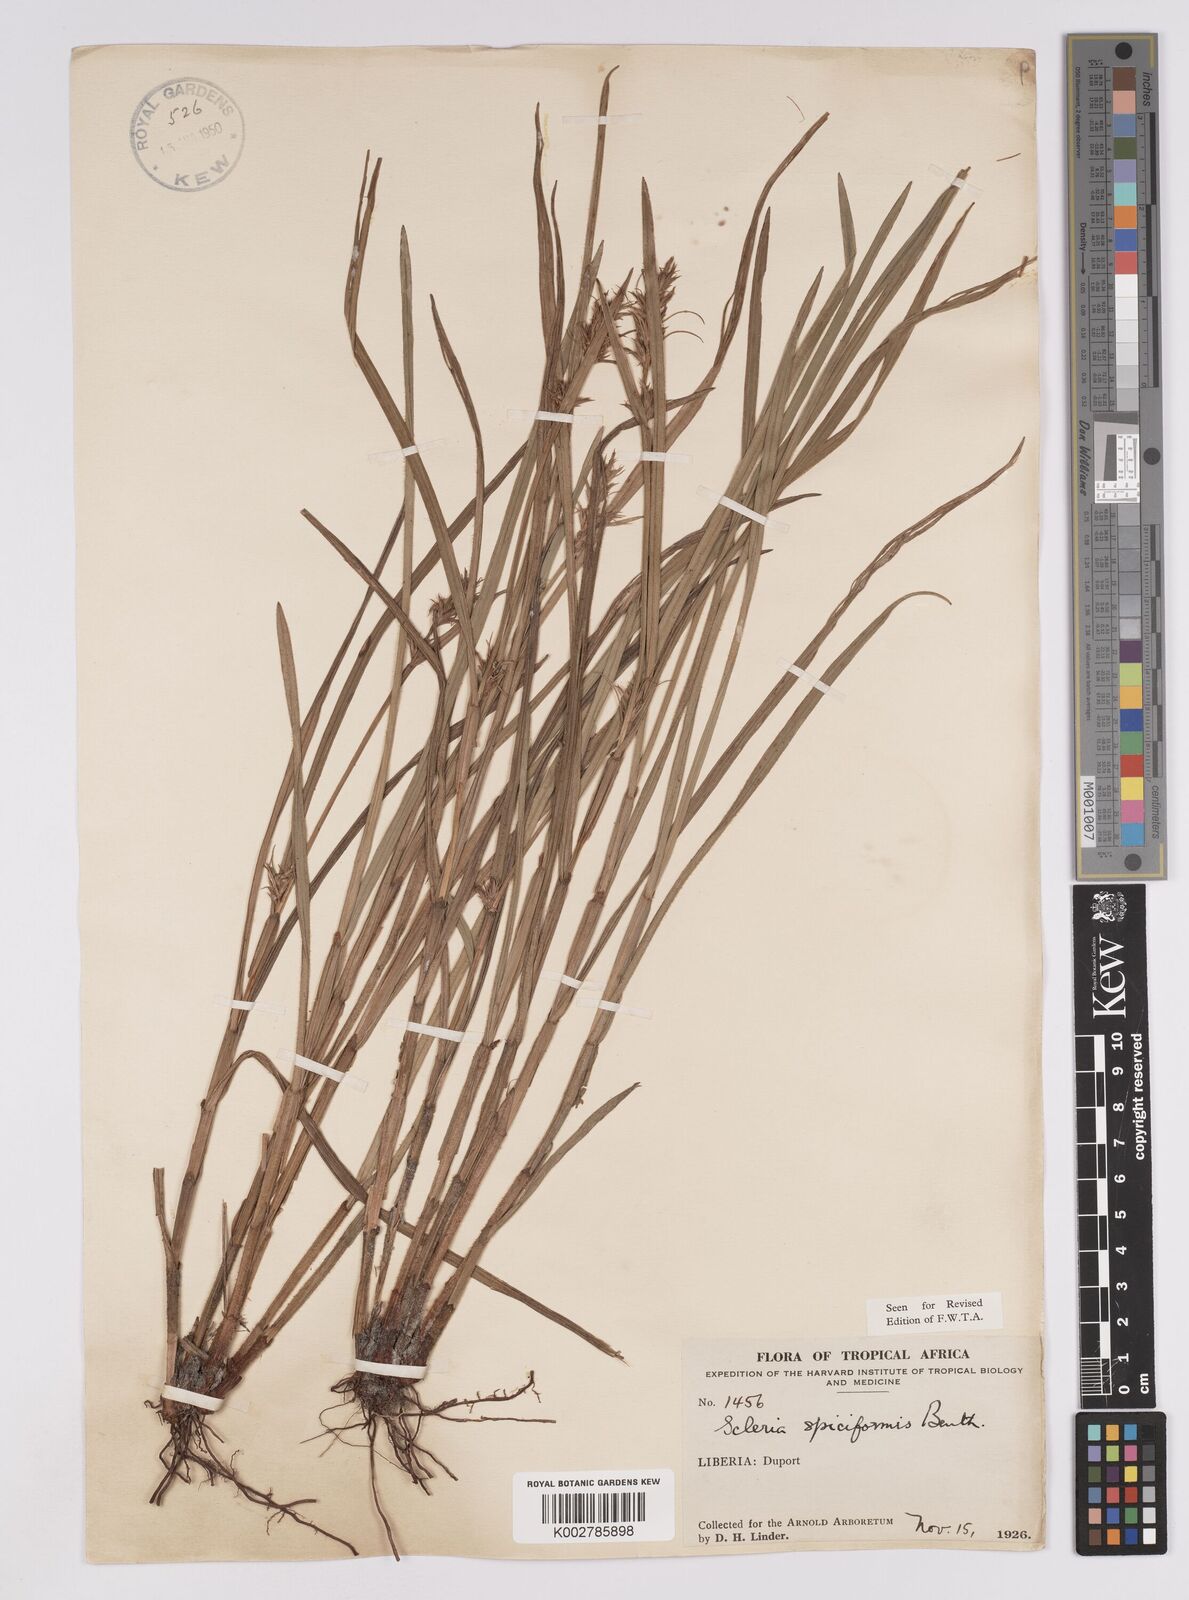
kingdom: Plantae
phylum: Tracheophyta
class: Liliopsida
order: Poales
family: Cyperaceae
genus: Scleria
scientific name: Scleria spiciformis
